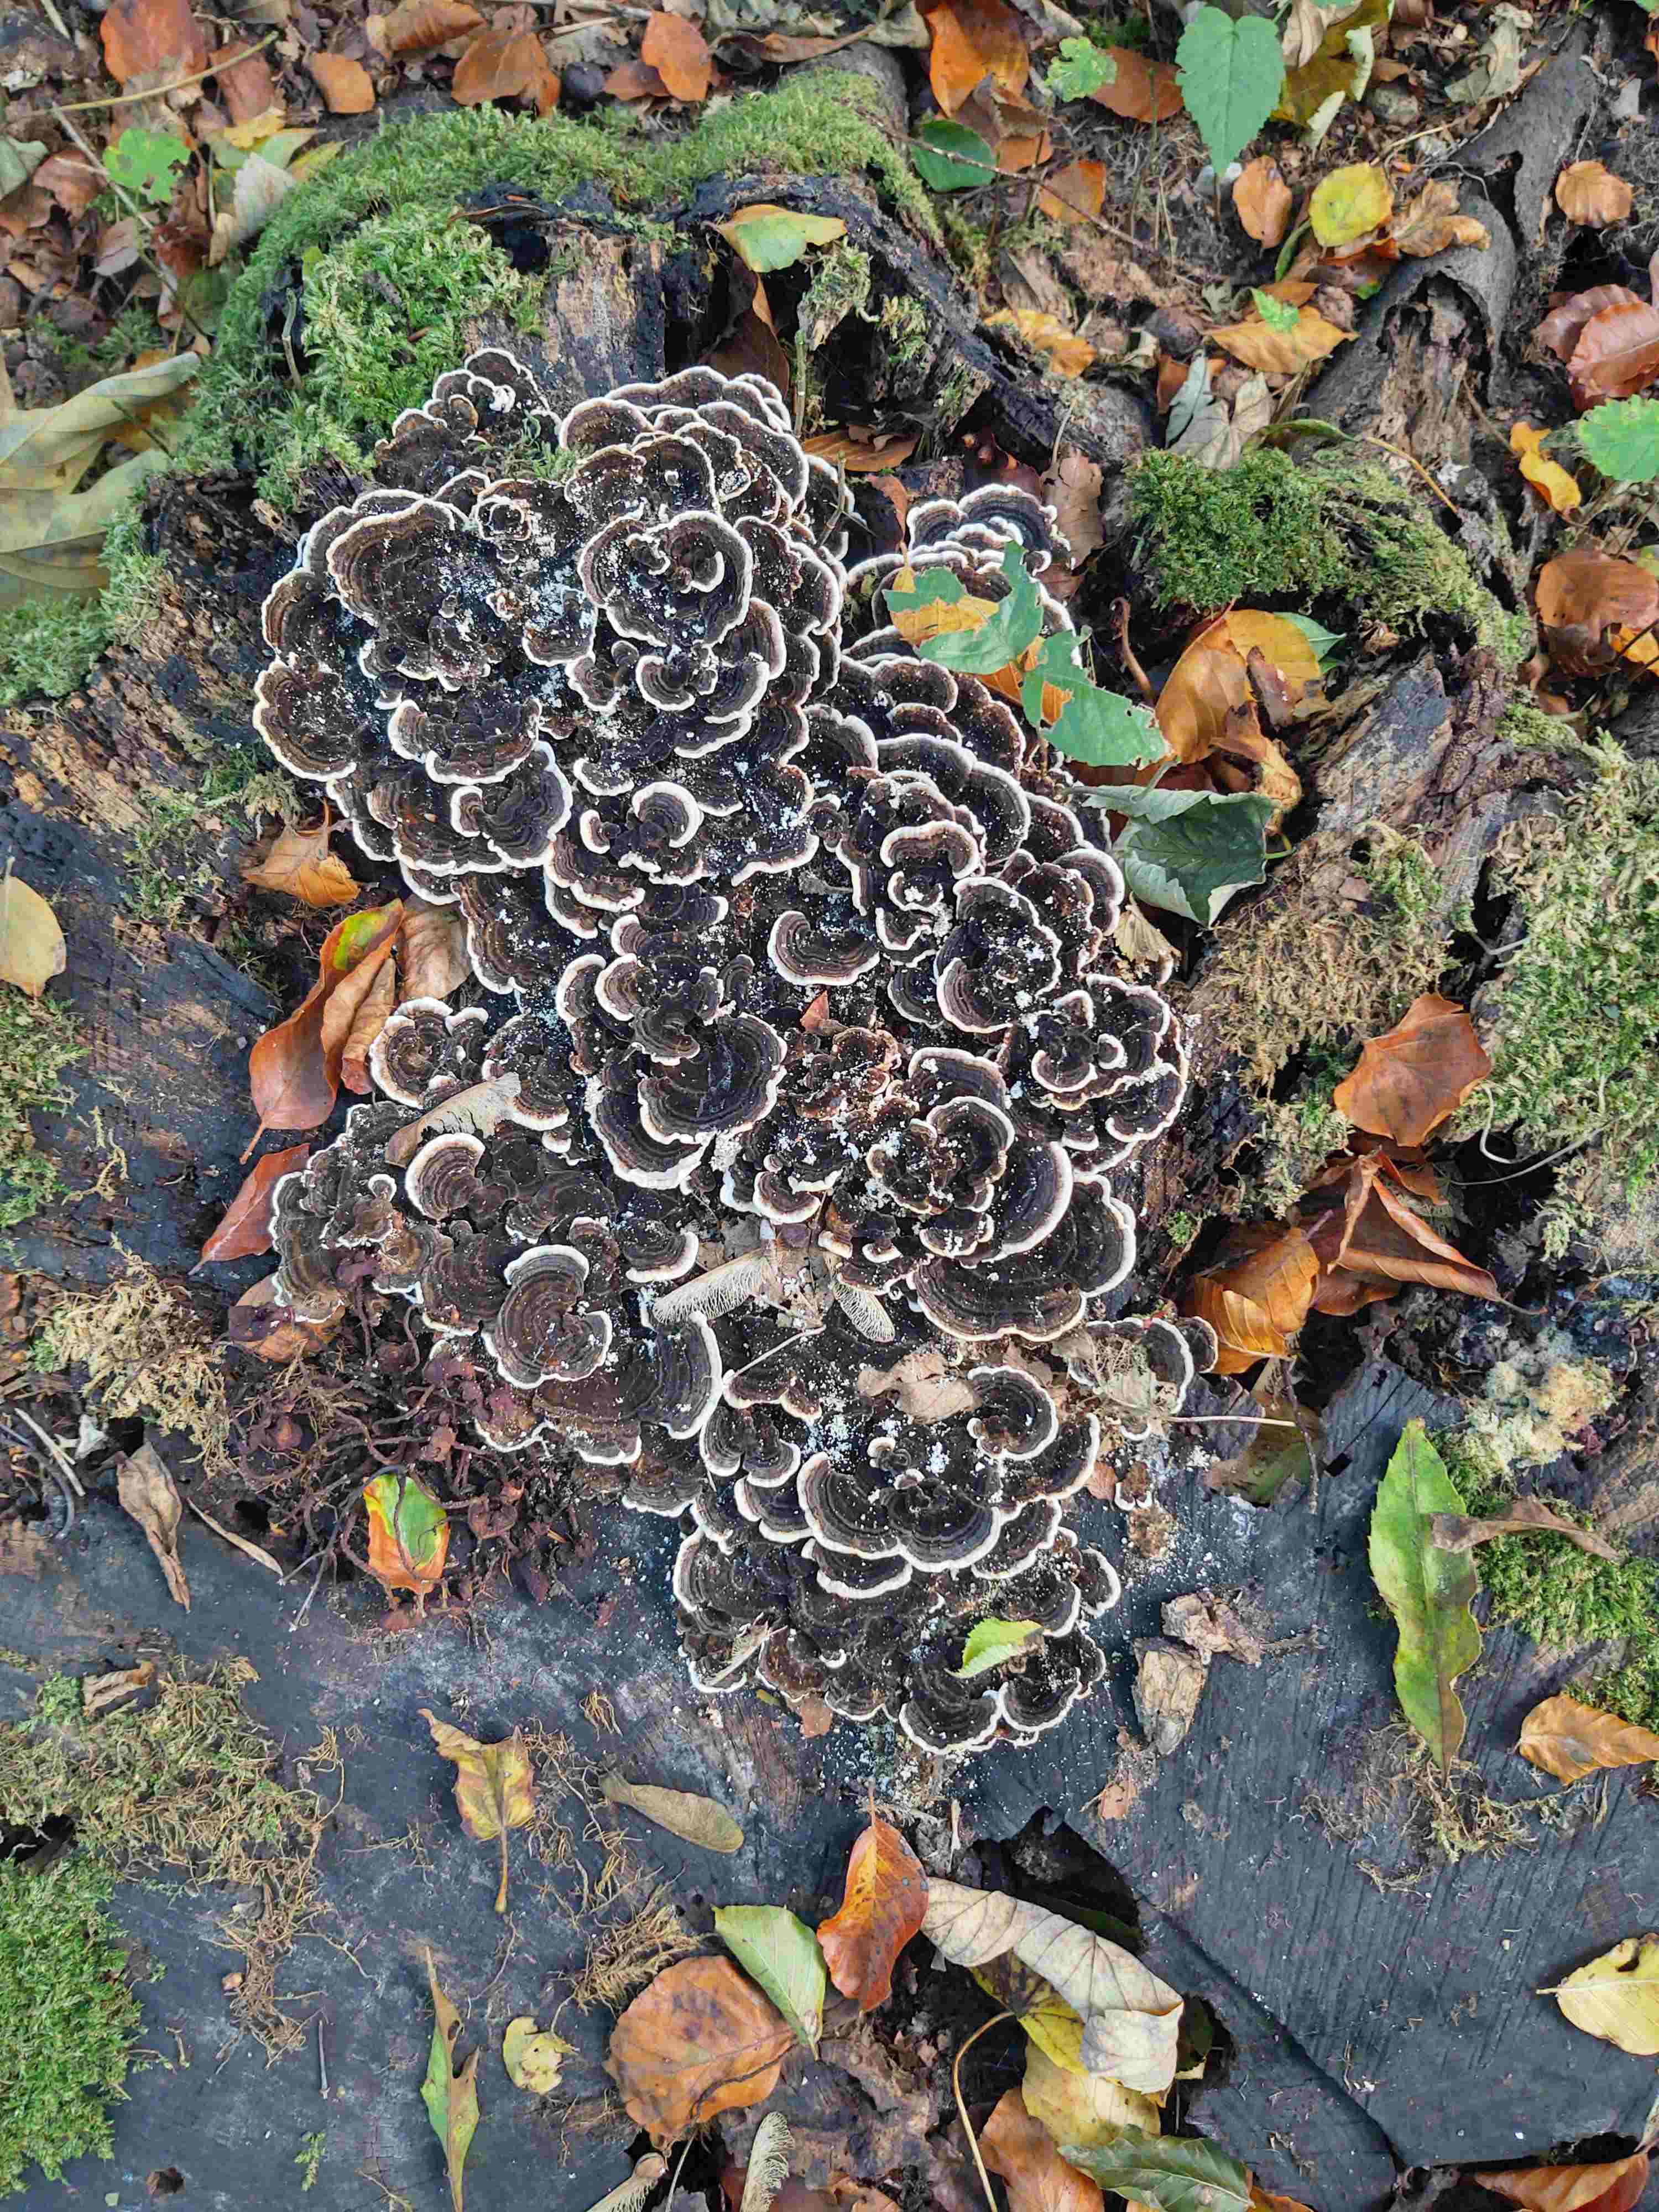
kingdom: Fungi
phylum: Basidiomycota
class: Agaricomycetes
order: Polyporales
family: Polyporaceae
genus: Trametes
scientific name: Trametes versicolor
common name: broget læderporesvamp
